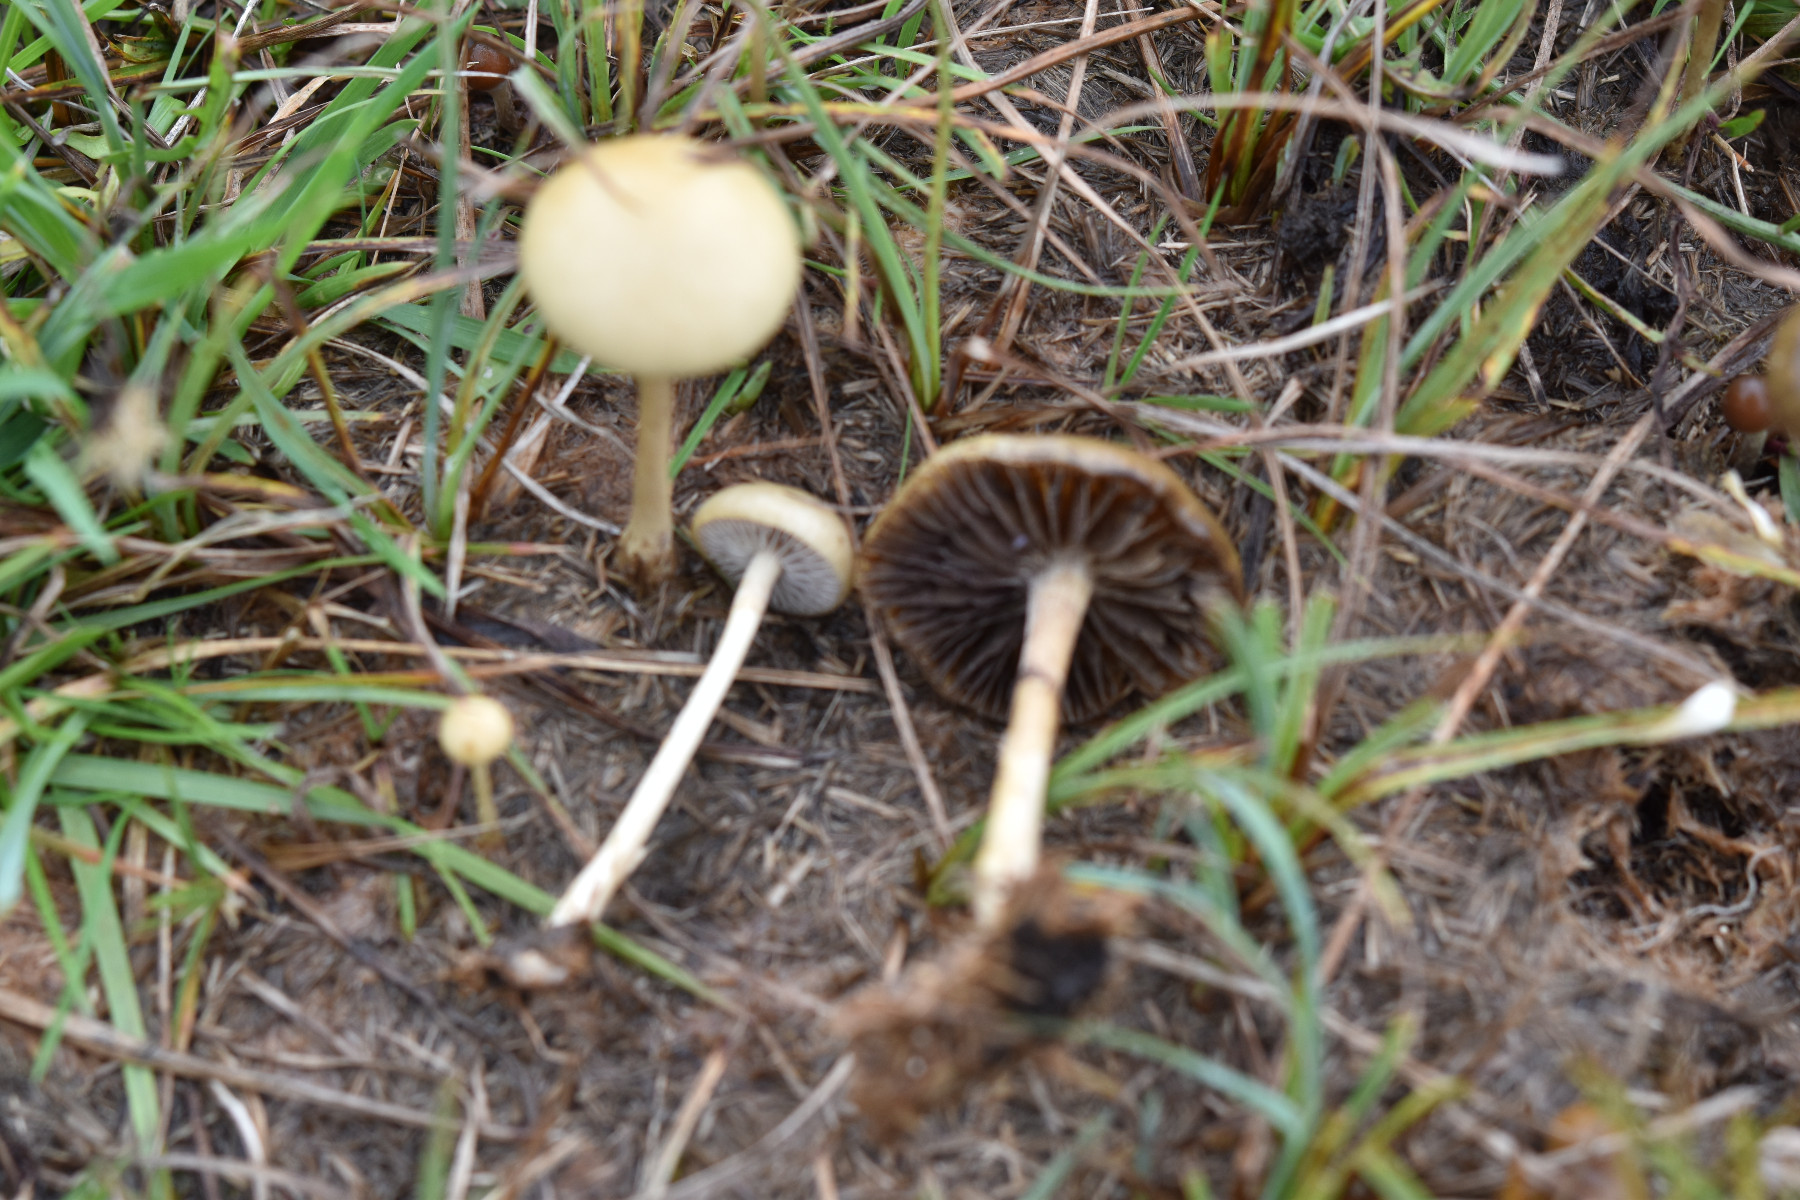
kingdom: Fungi
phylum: Basidiomycota
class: Agaricomycetes
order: Agaricales
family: Strophariaceae
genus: Protostropharia
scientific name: Protostropharia semiglobata
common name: halvkugleformet bredblad
